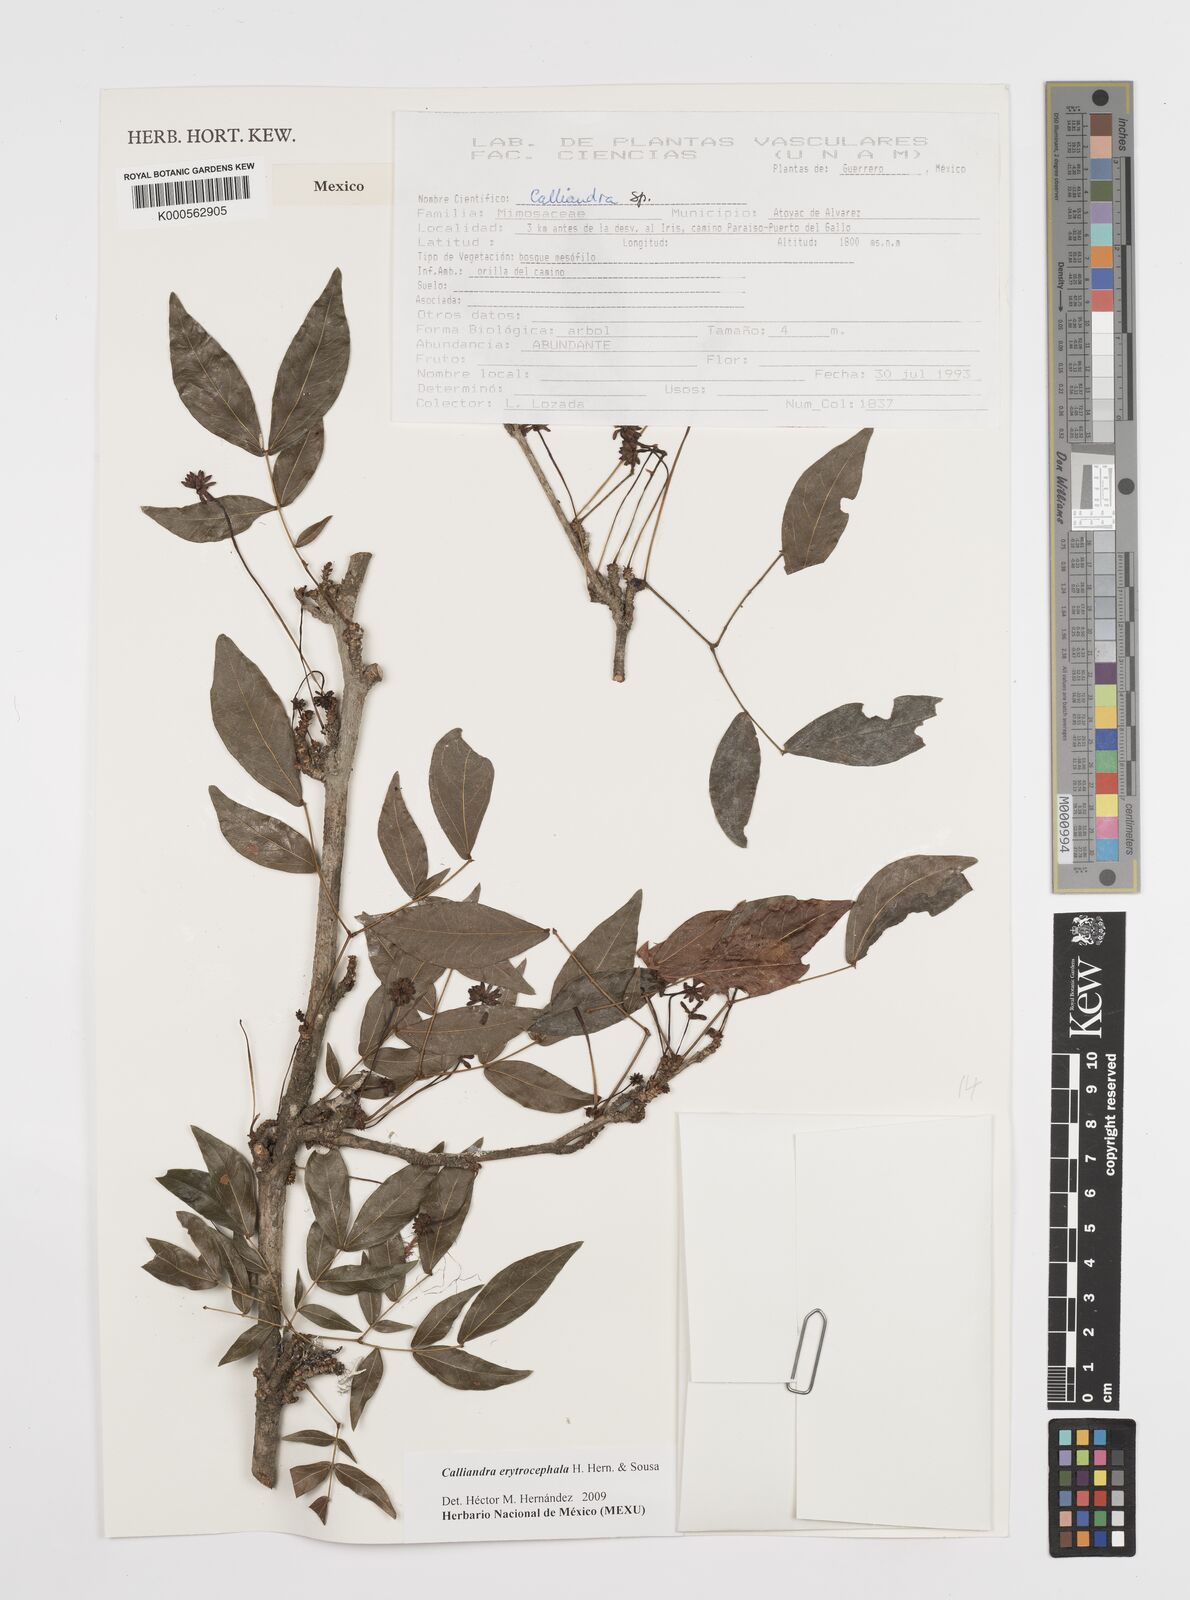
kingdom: Plantae
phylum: Tracheophyta
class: Magnoliopsida
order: Fabales
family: Fabaceae
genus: Calliandra
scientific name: Calliandra
